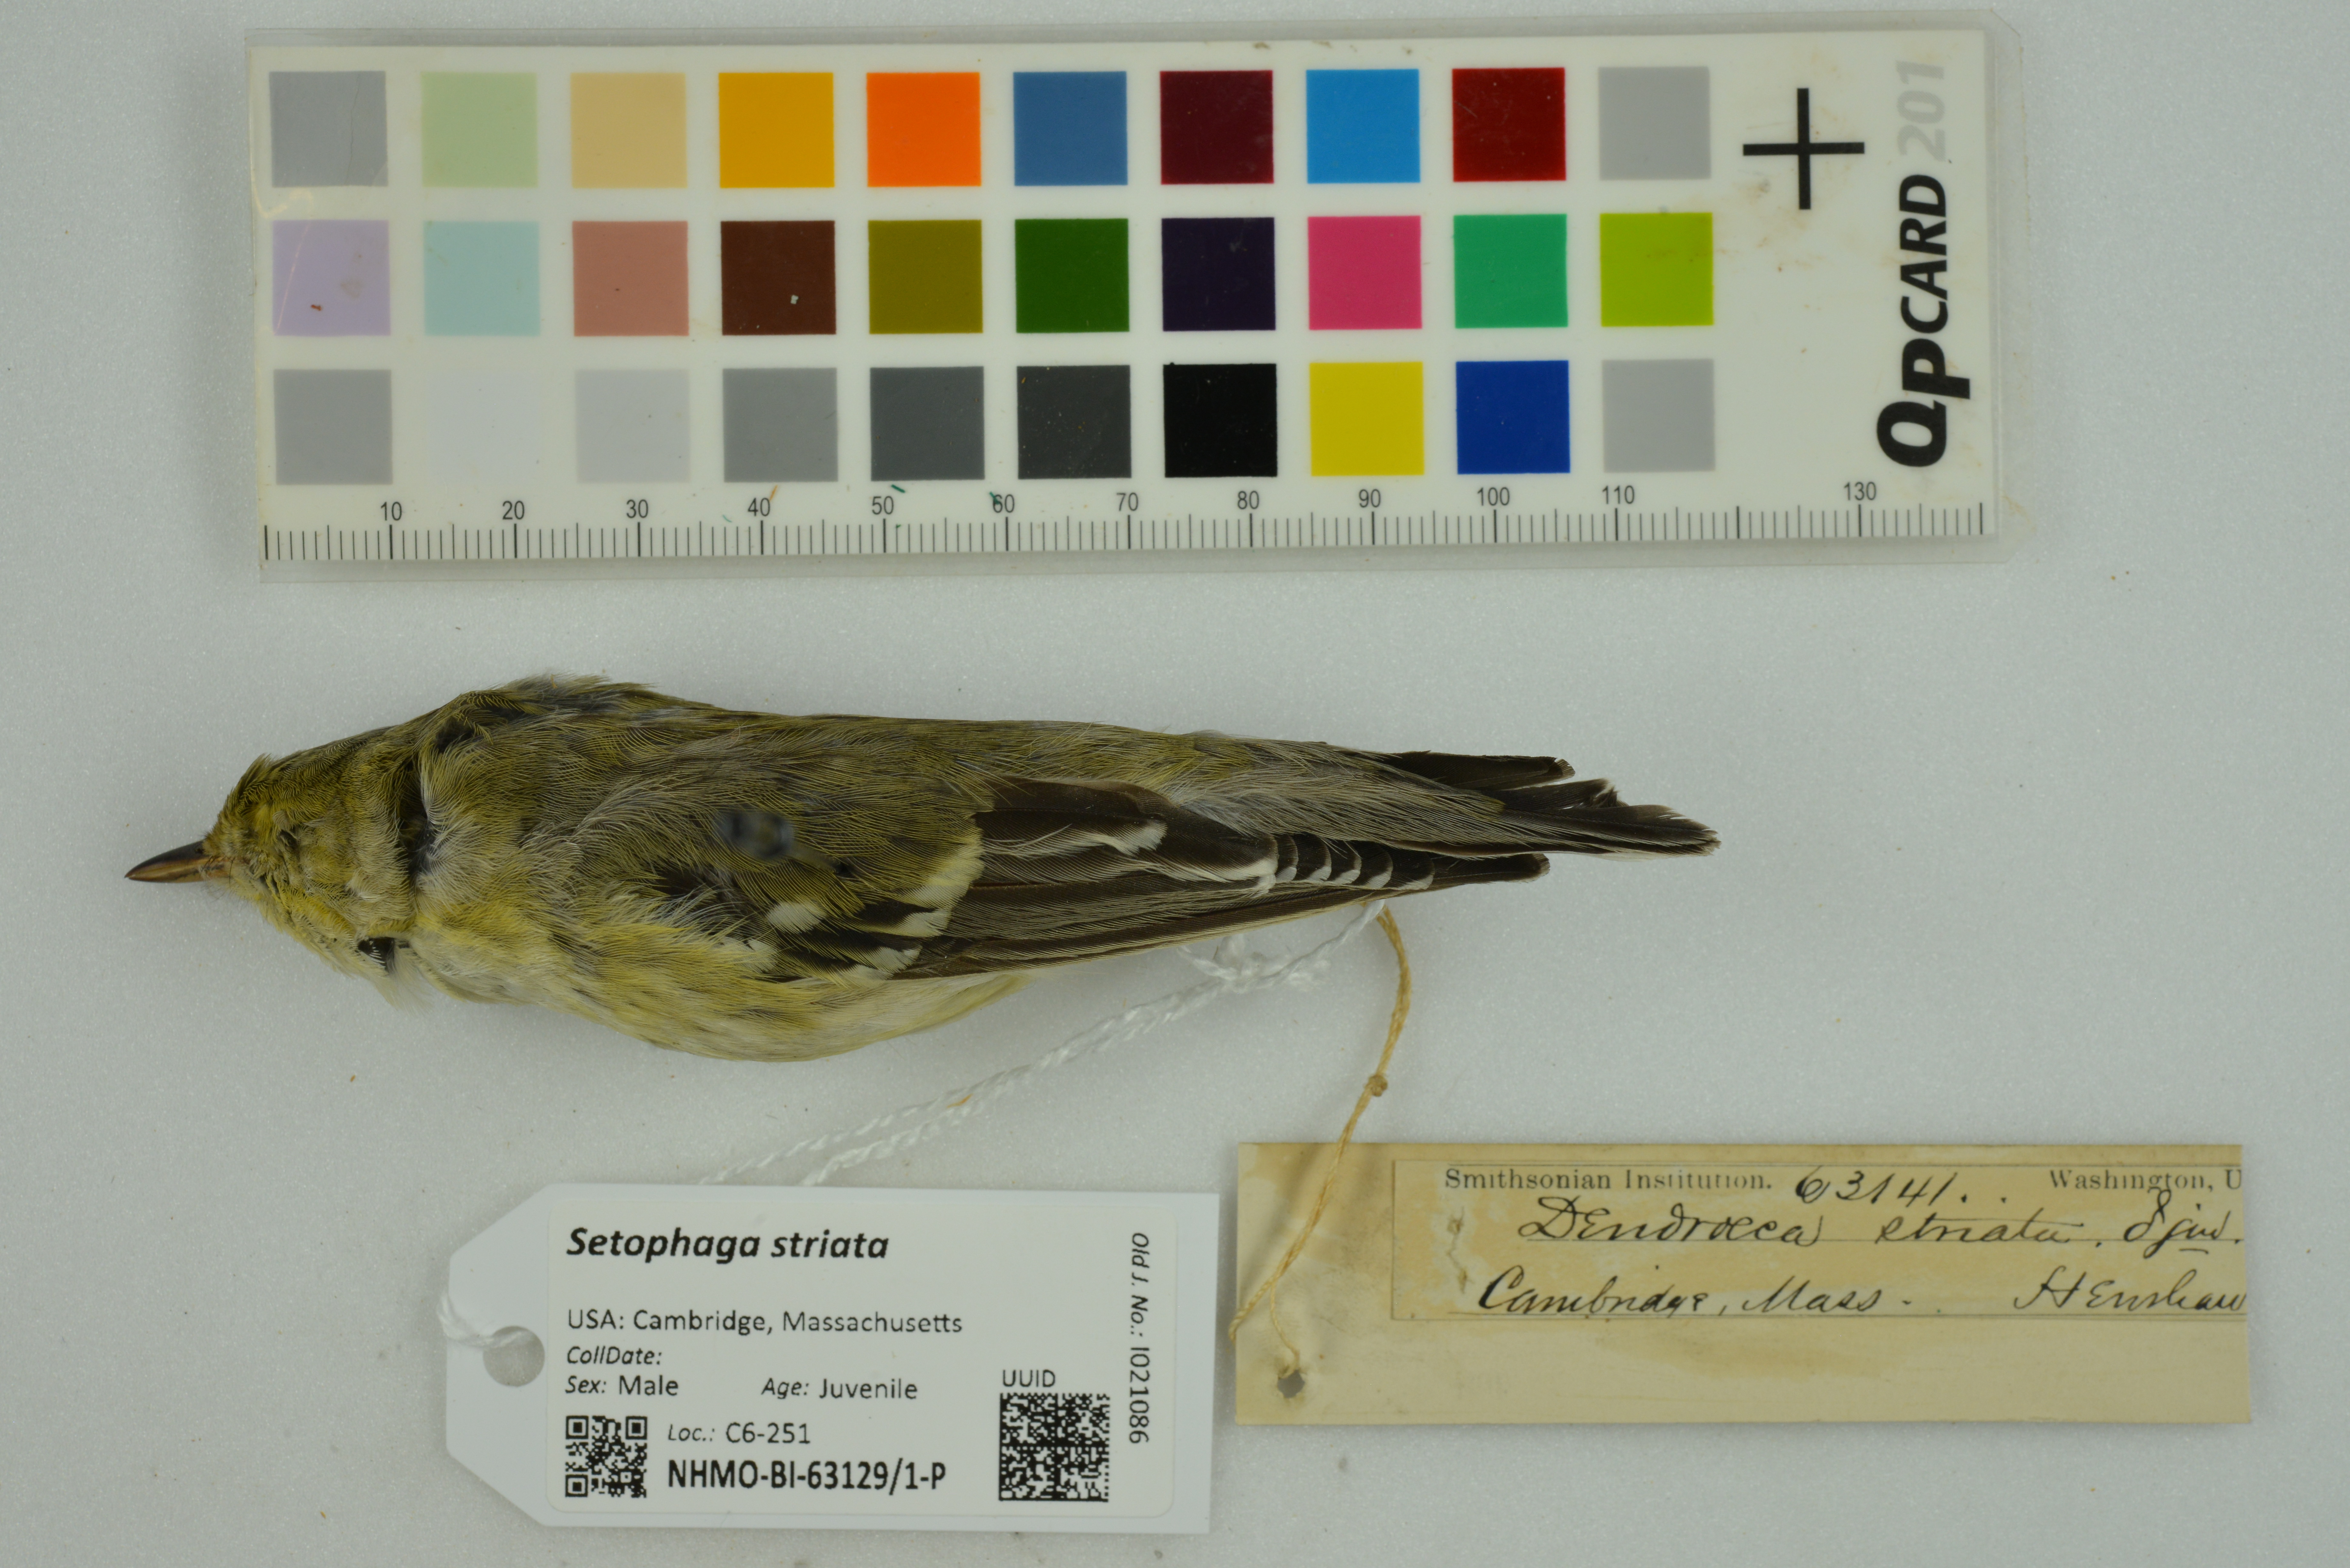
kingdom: Animalia
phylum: Chordata
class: Aves
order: Passeriformes
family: Parulidae
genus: Setophaga
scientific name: Setophaga striata
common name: Blackpoll warbler
